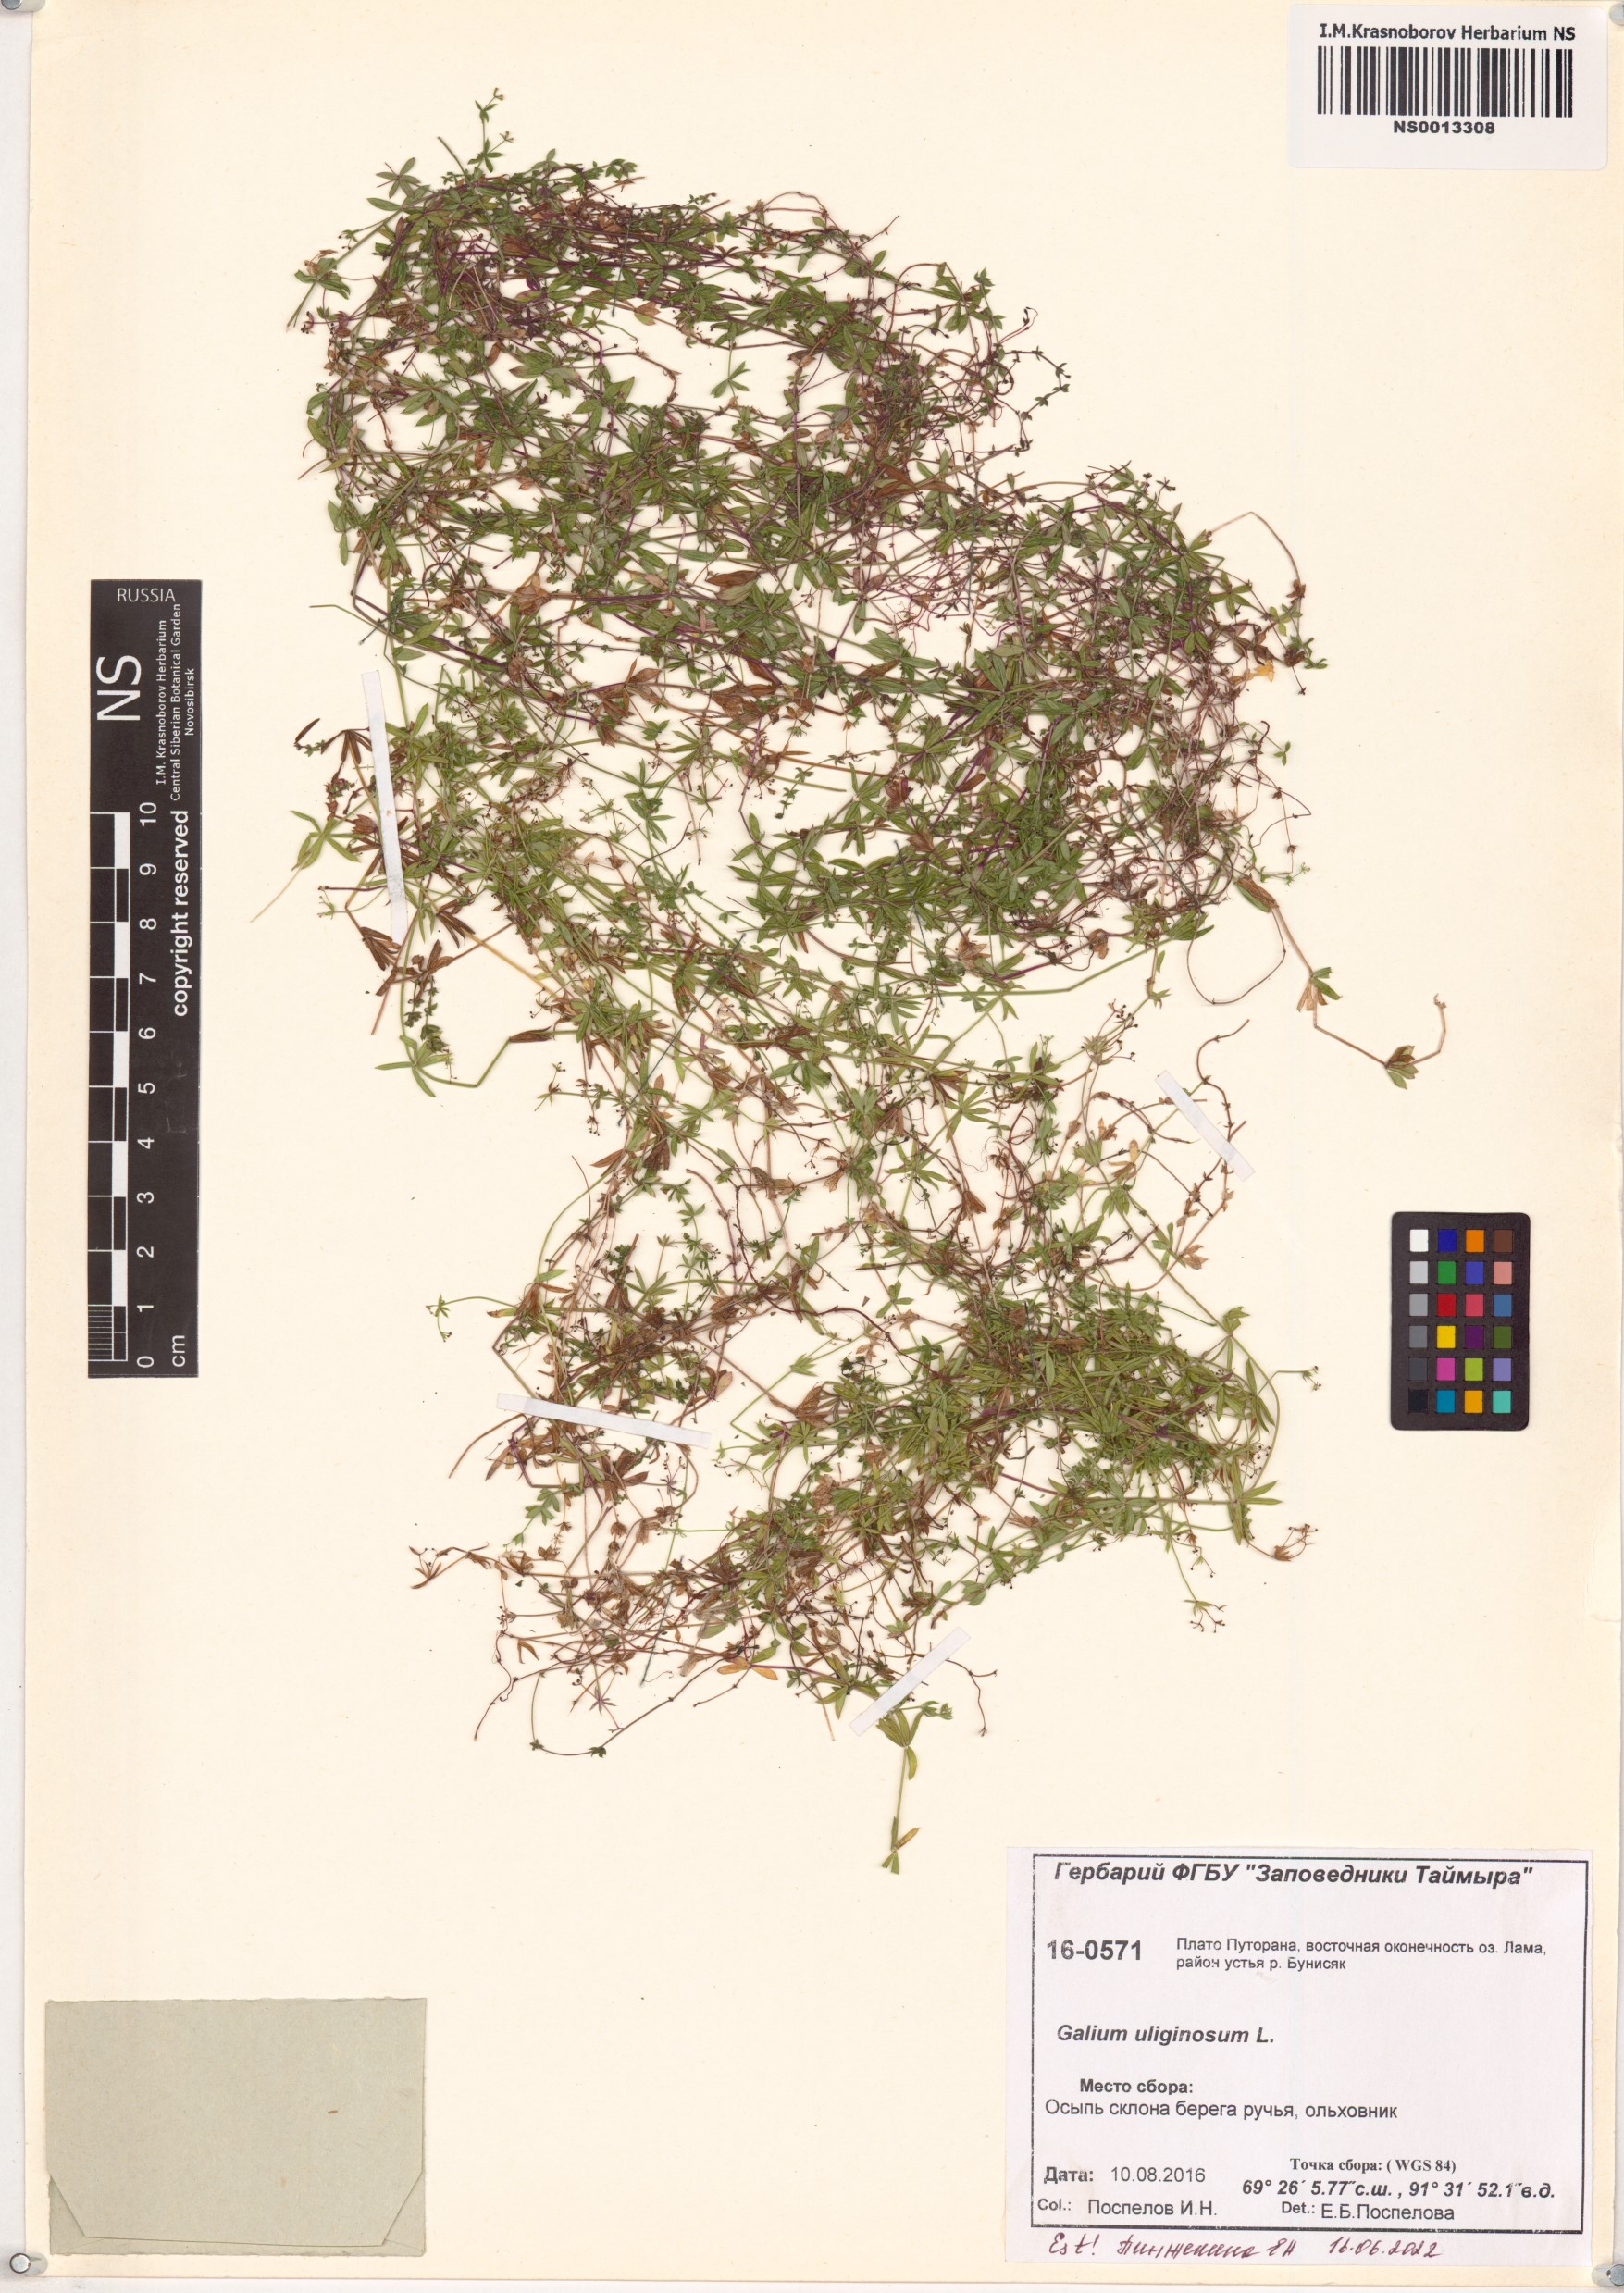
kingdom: Plantae
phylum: Tracheophyta
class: Magnoliopsida
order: Gentianales
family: Rubiaceae
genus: Galium
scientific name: Galium uliginosum
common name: Fen bedstraw
